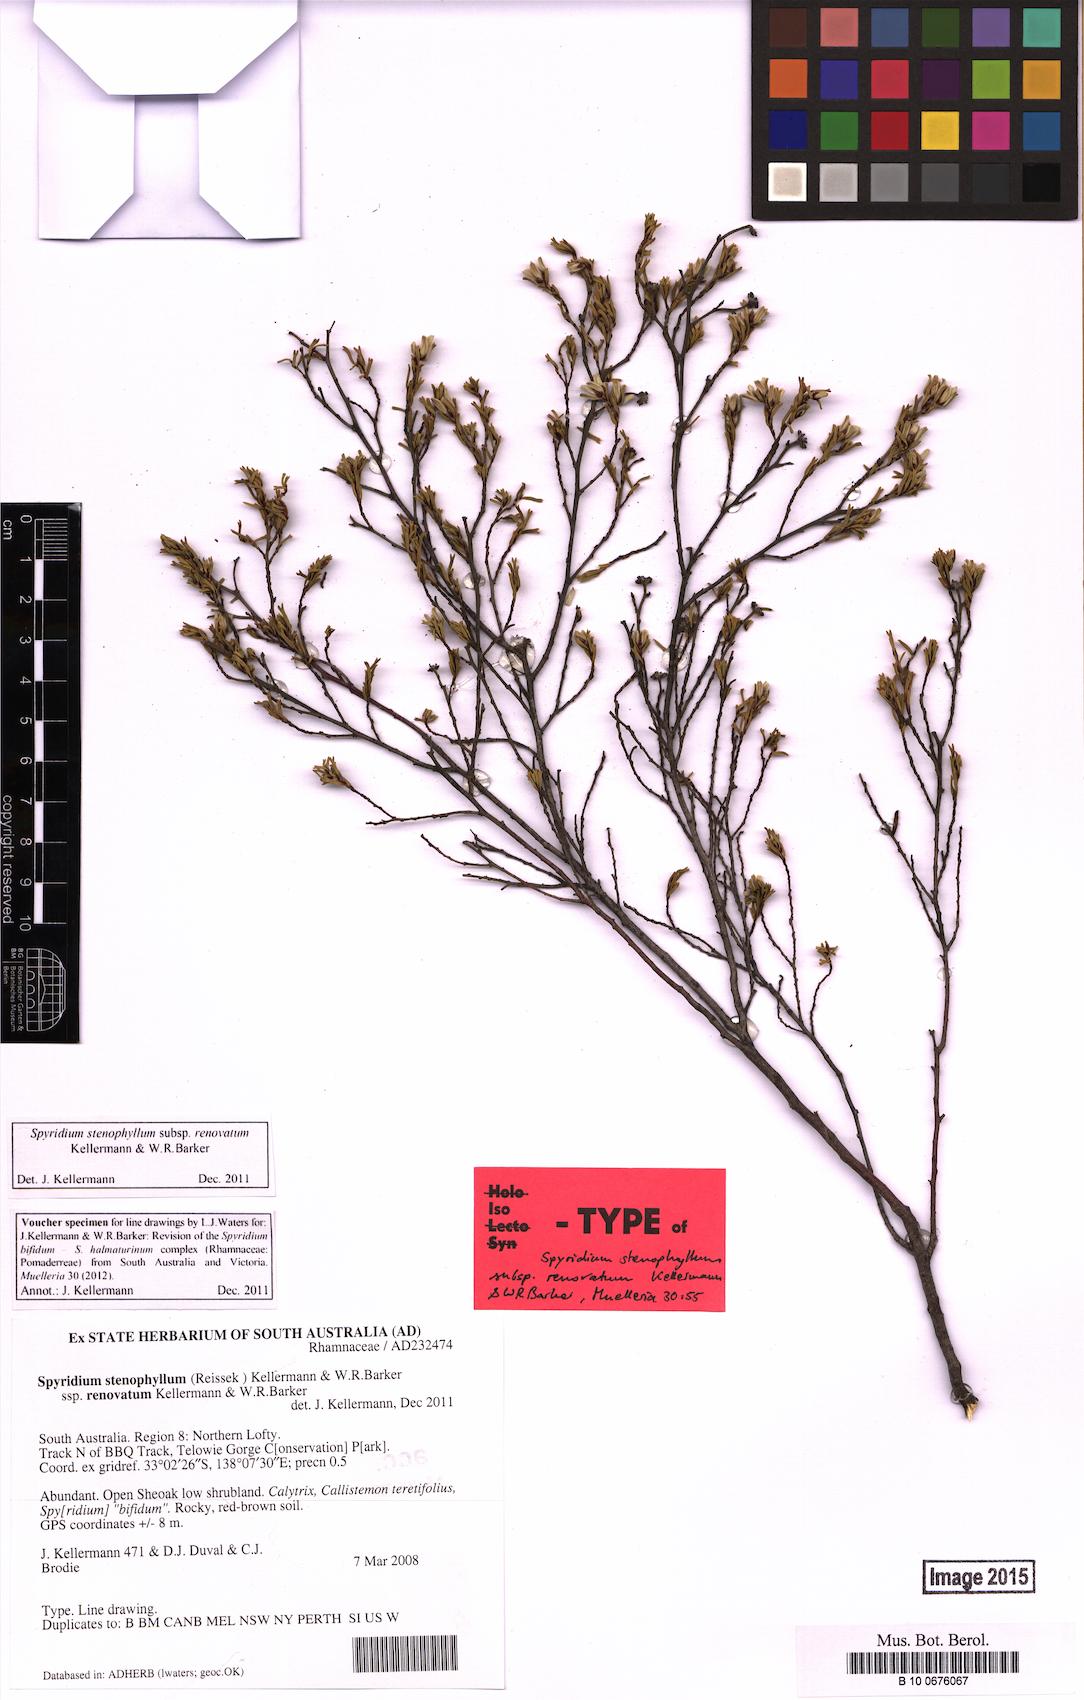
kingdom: Plantae
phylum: Tracheophyta
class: Magnoliopsida
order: Rosales
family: Rhamnaceae
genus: Spyridium
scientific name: Spyridium stenophyllum
